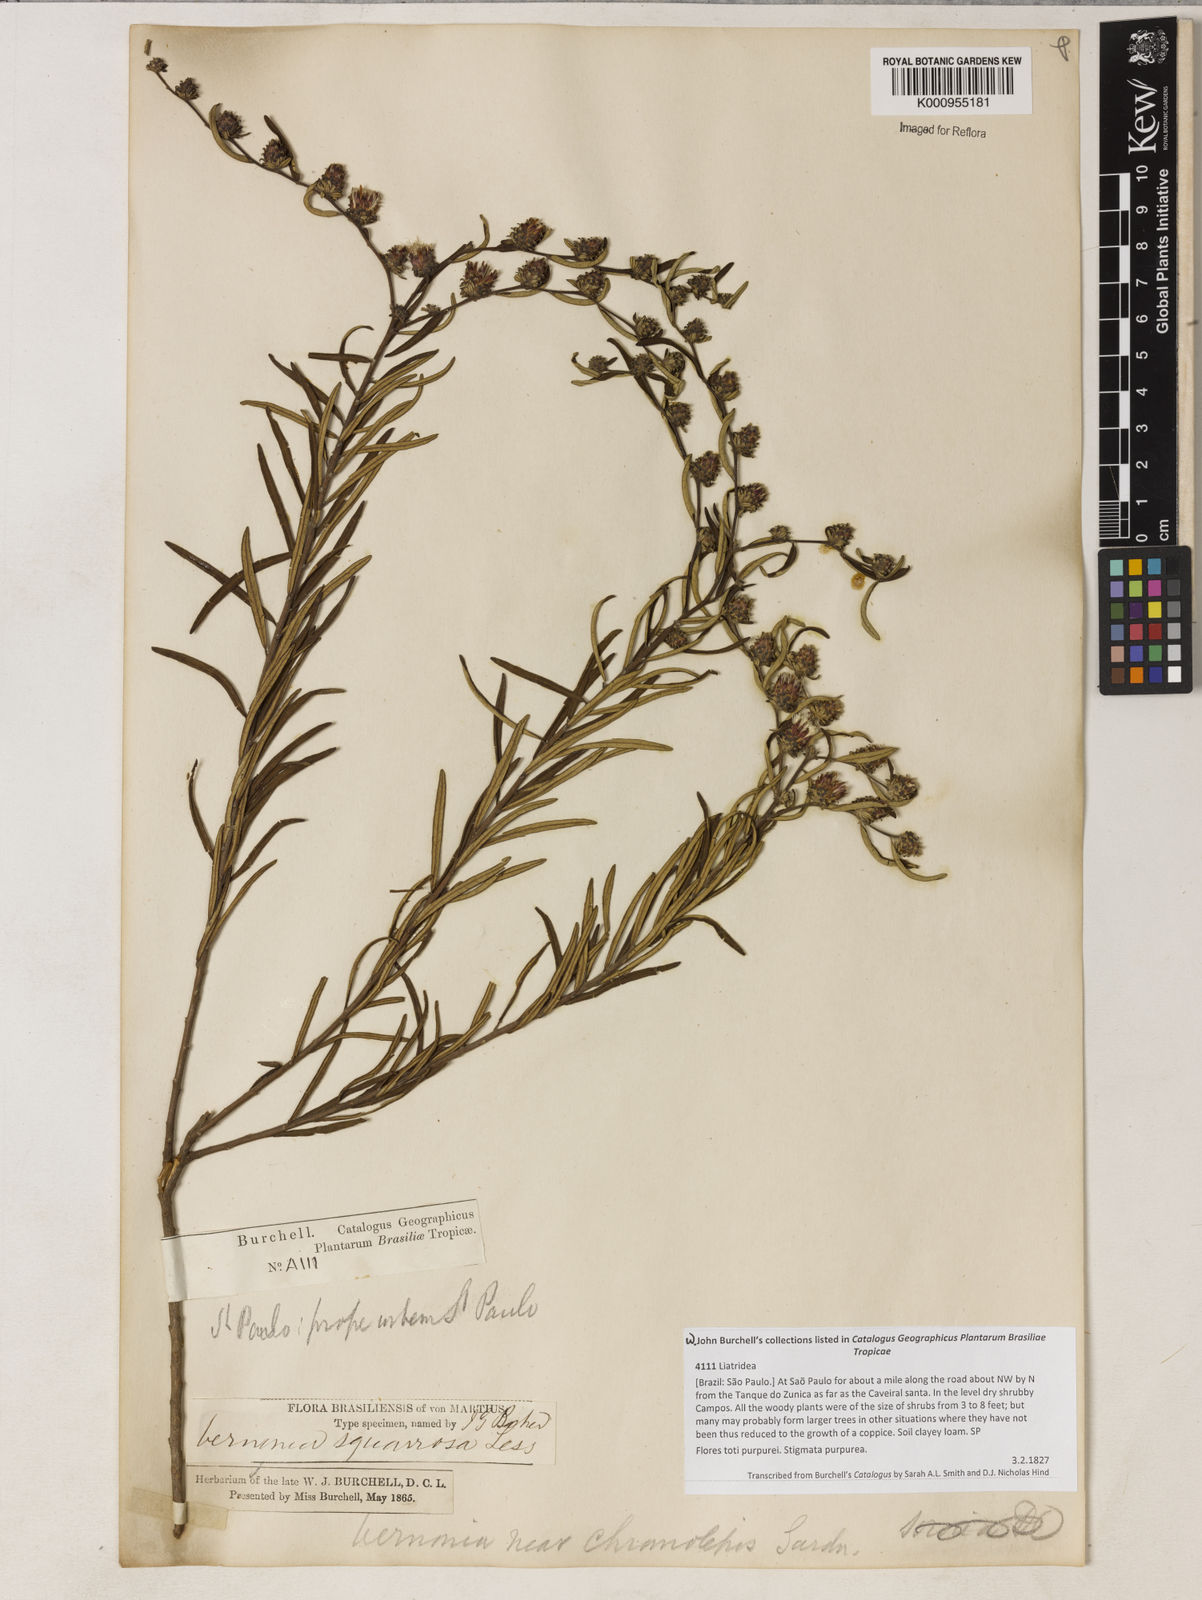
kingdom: Plantae
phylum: Tracheophyta
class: Magnoliopsida
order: Asterales
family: Asteraceae
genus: Lessingianthus
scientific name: Lessingianthus buddlejifolius
